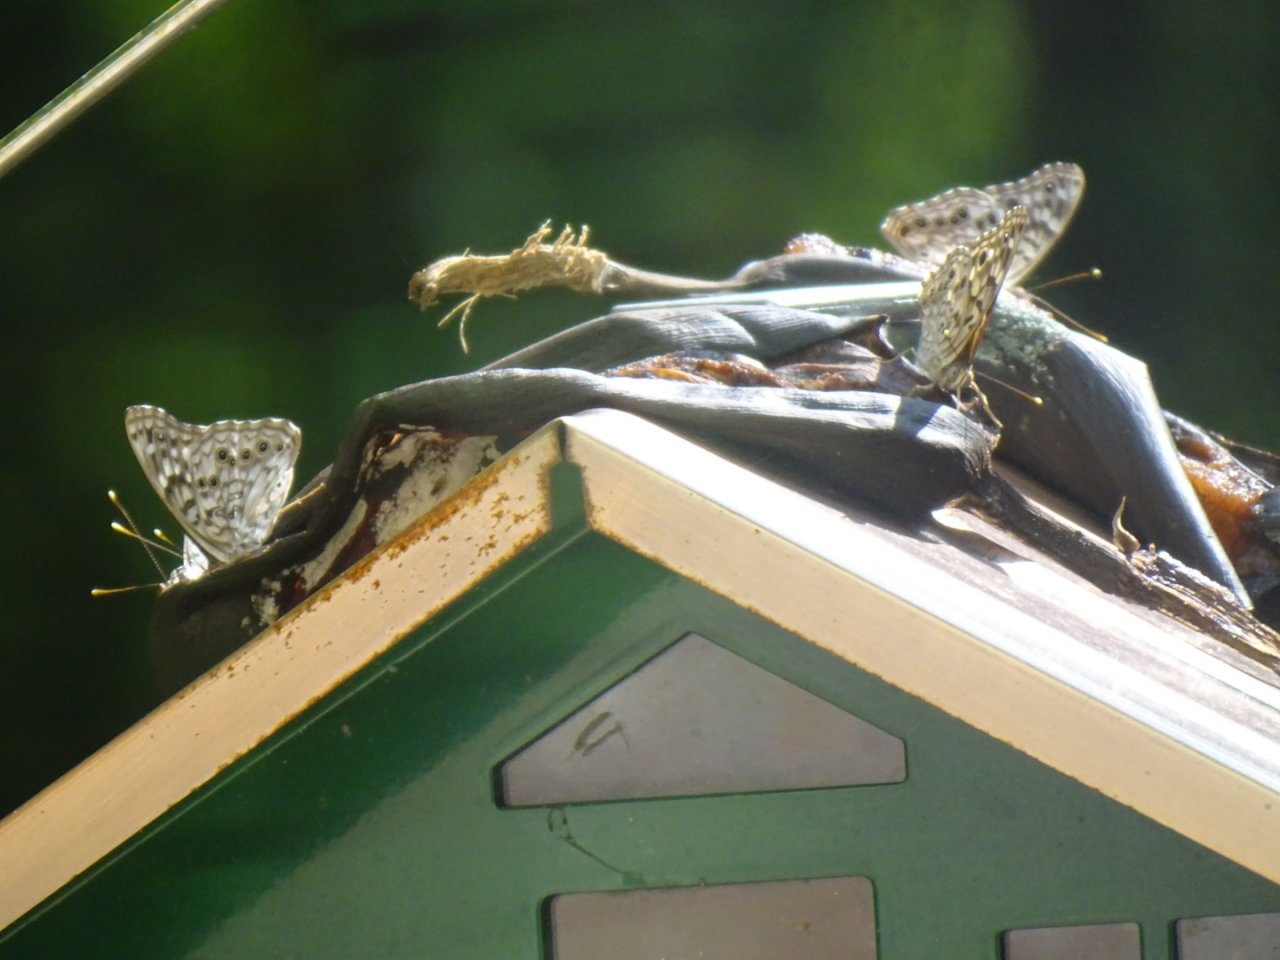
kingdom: Animalia
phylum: Arthropoda
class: Insecta
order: Lepidoptera
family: Nymphalidae
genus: Asterocampa
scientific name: Asterocampa celtis
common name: Hackberry Emperor
